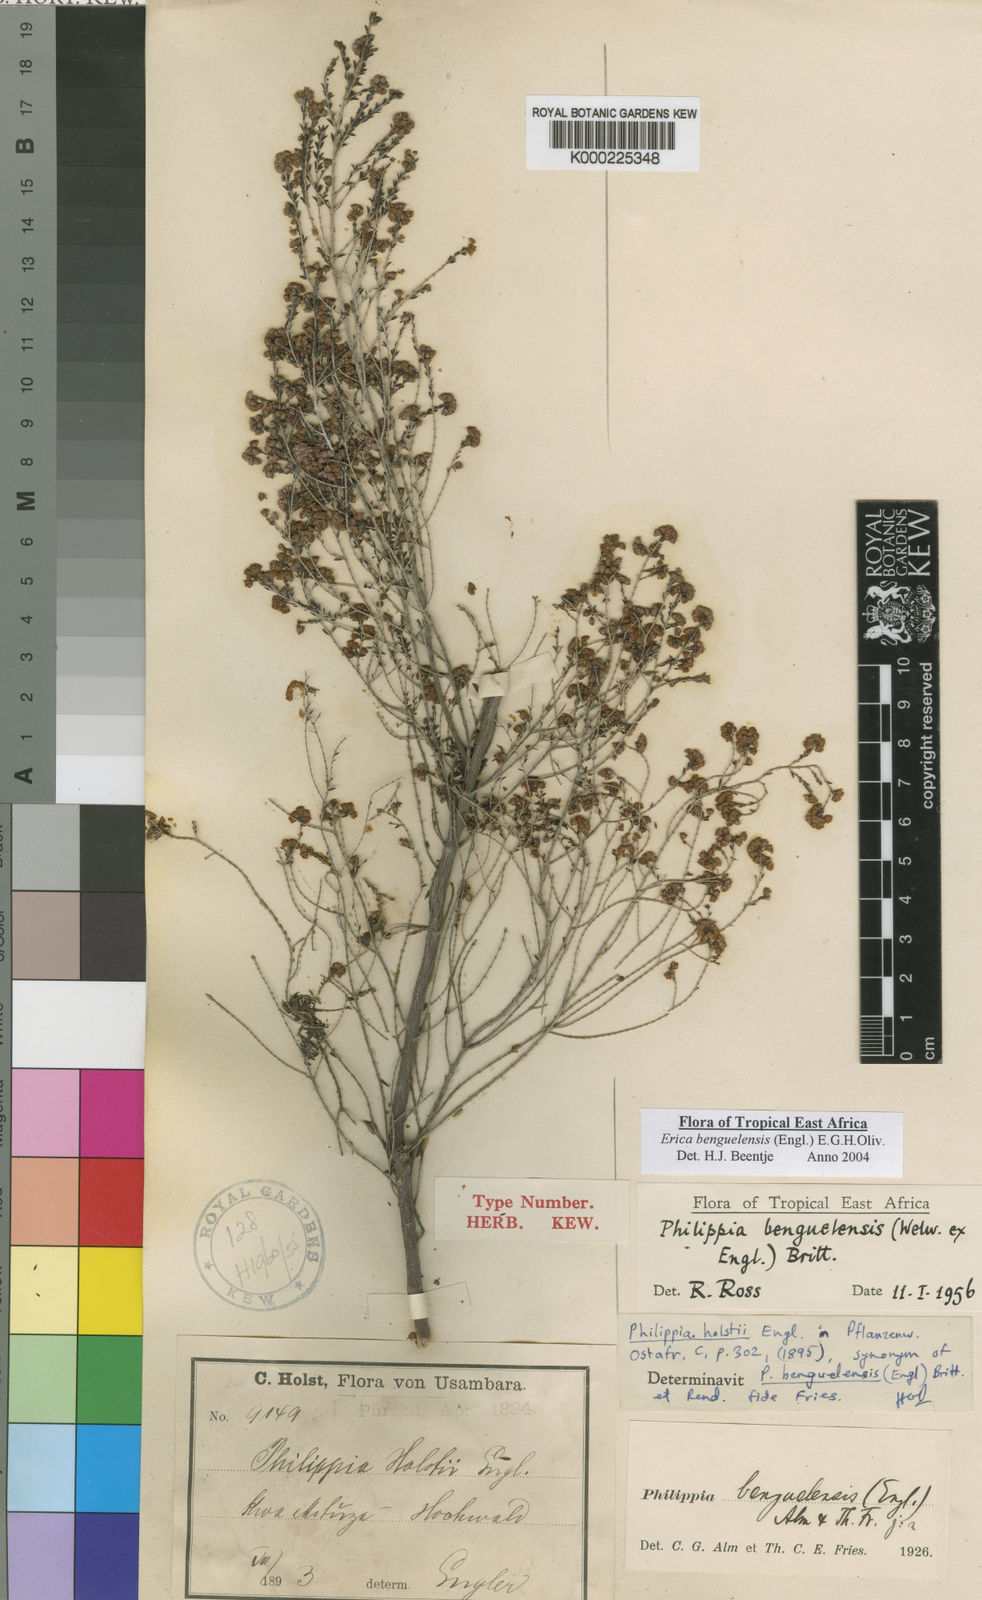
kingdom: Plantae
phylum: Tracheophyta
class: Magnoliopsida
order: Ericales
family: Ericaceae
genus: Erica
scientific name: Erica benguelensis
